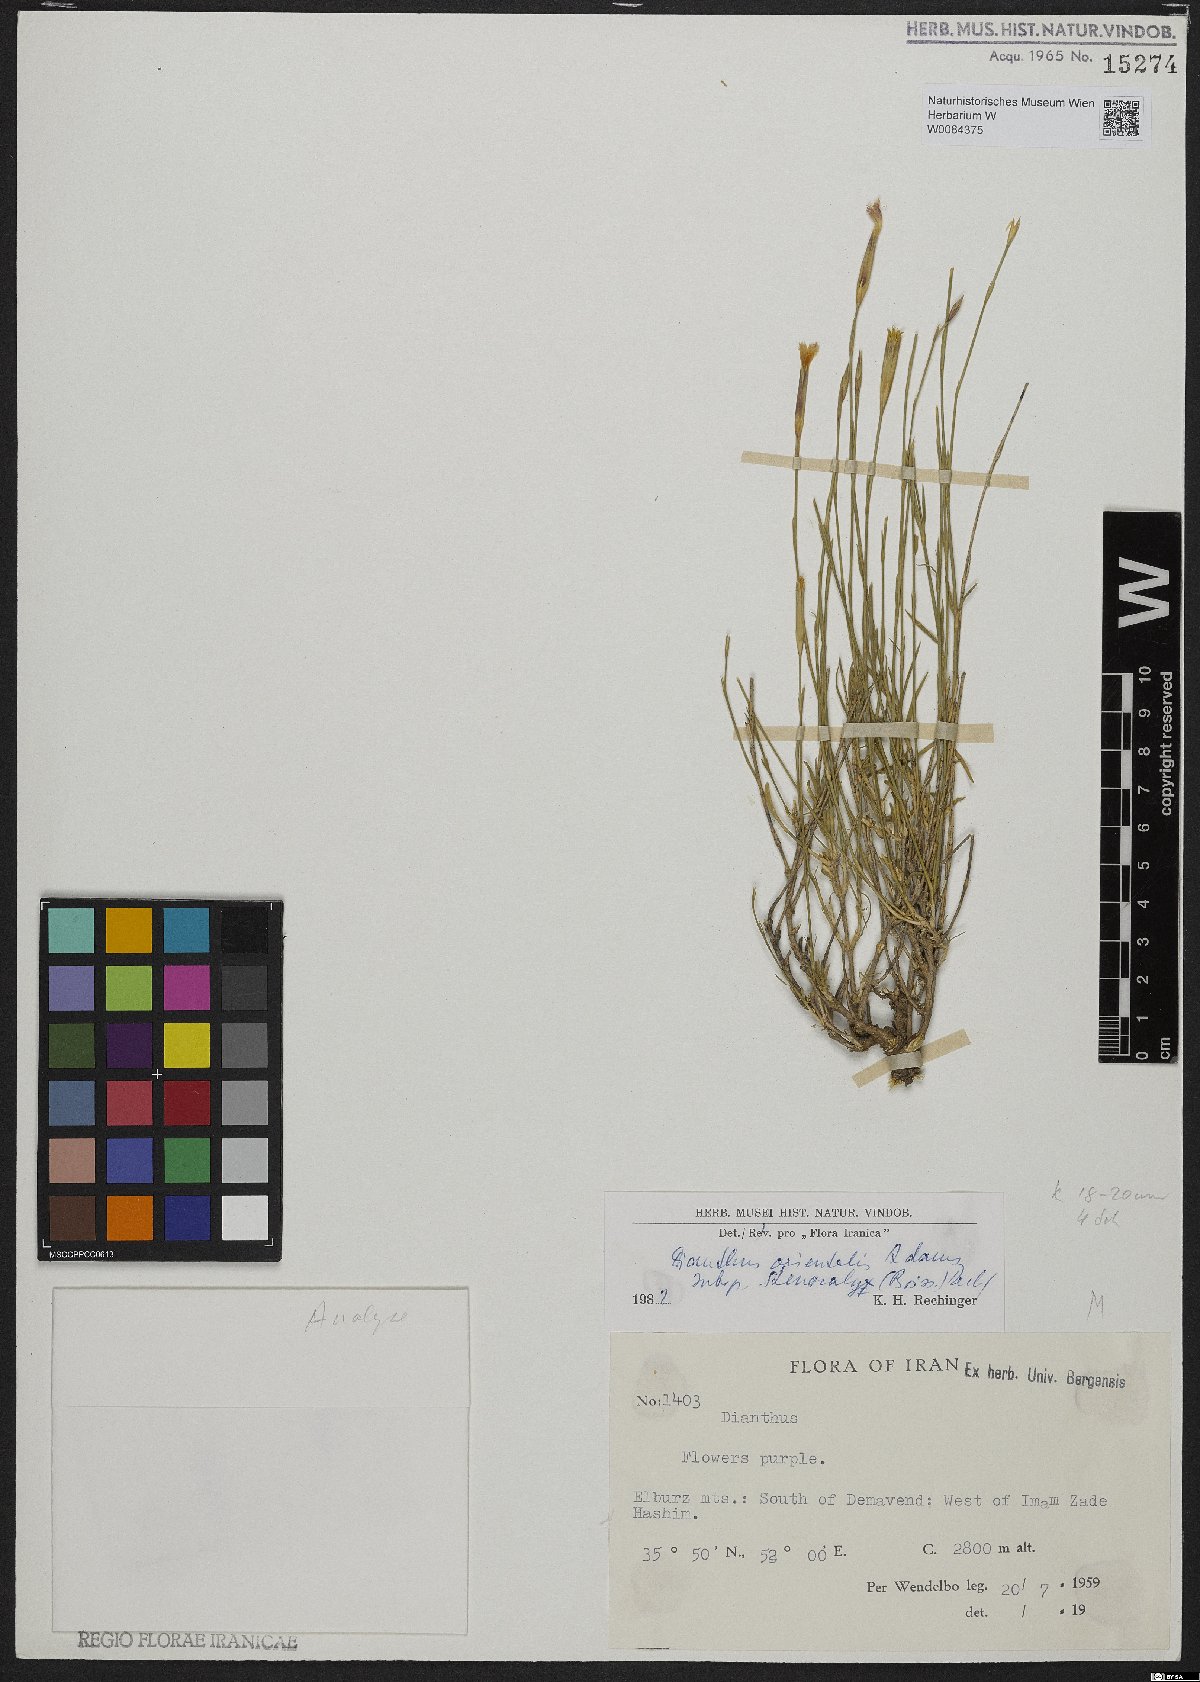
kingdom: Plantae
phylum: Tracheophyta
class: Magnoliopsida
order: Caryophyllales
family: Caryophyllaceae
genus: Dianthus
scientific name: Dianthus orientalis
